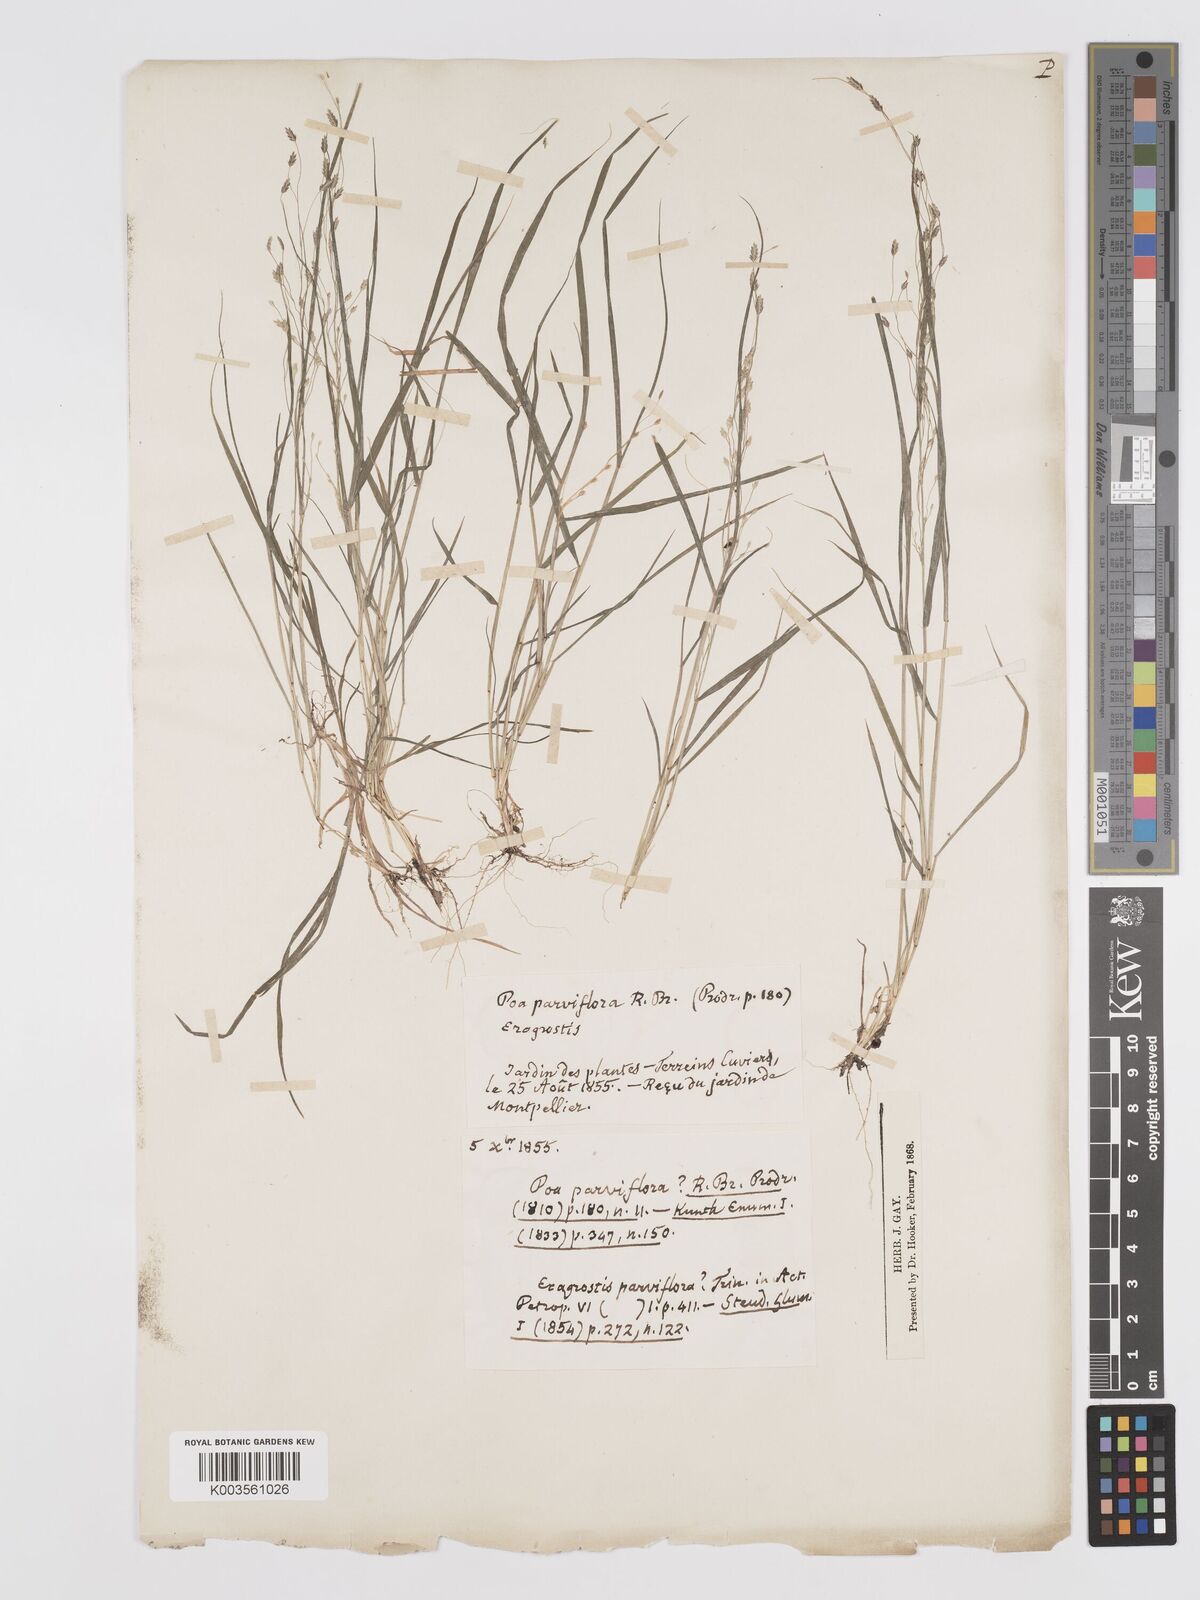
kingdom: Plantae
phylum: Tracheophyta
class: Liliopsida
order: Poales
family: Poaceae
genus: Eragrostis
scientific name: Eragrostis
